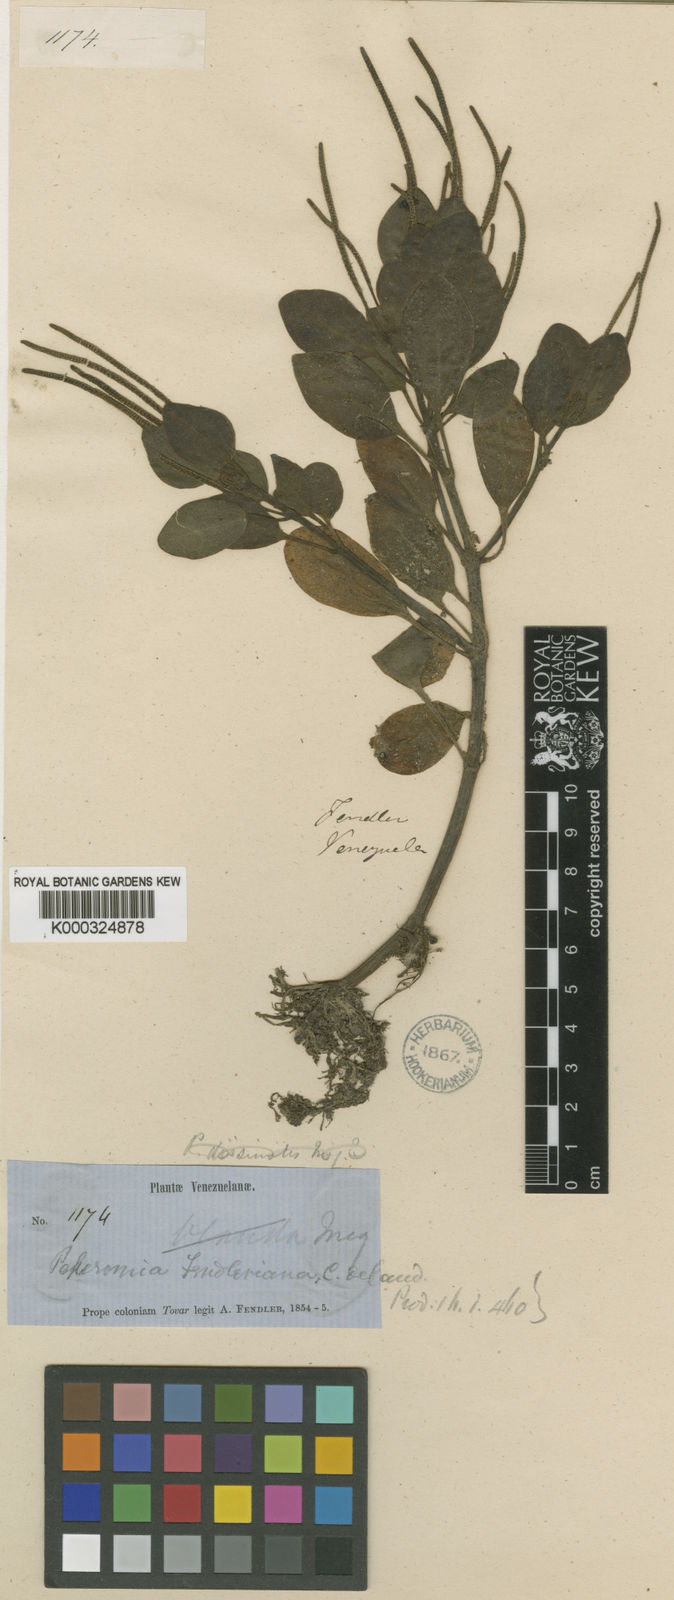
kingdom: Plantae
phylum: Tracheophyta
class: Magnoliopsida
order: Piperales
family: Piperaceae
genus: Peperomia
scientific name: Peperomia fendleriana
